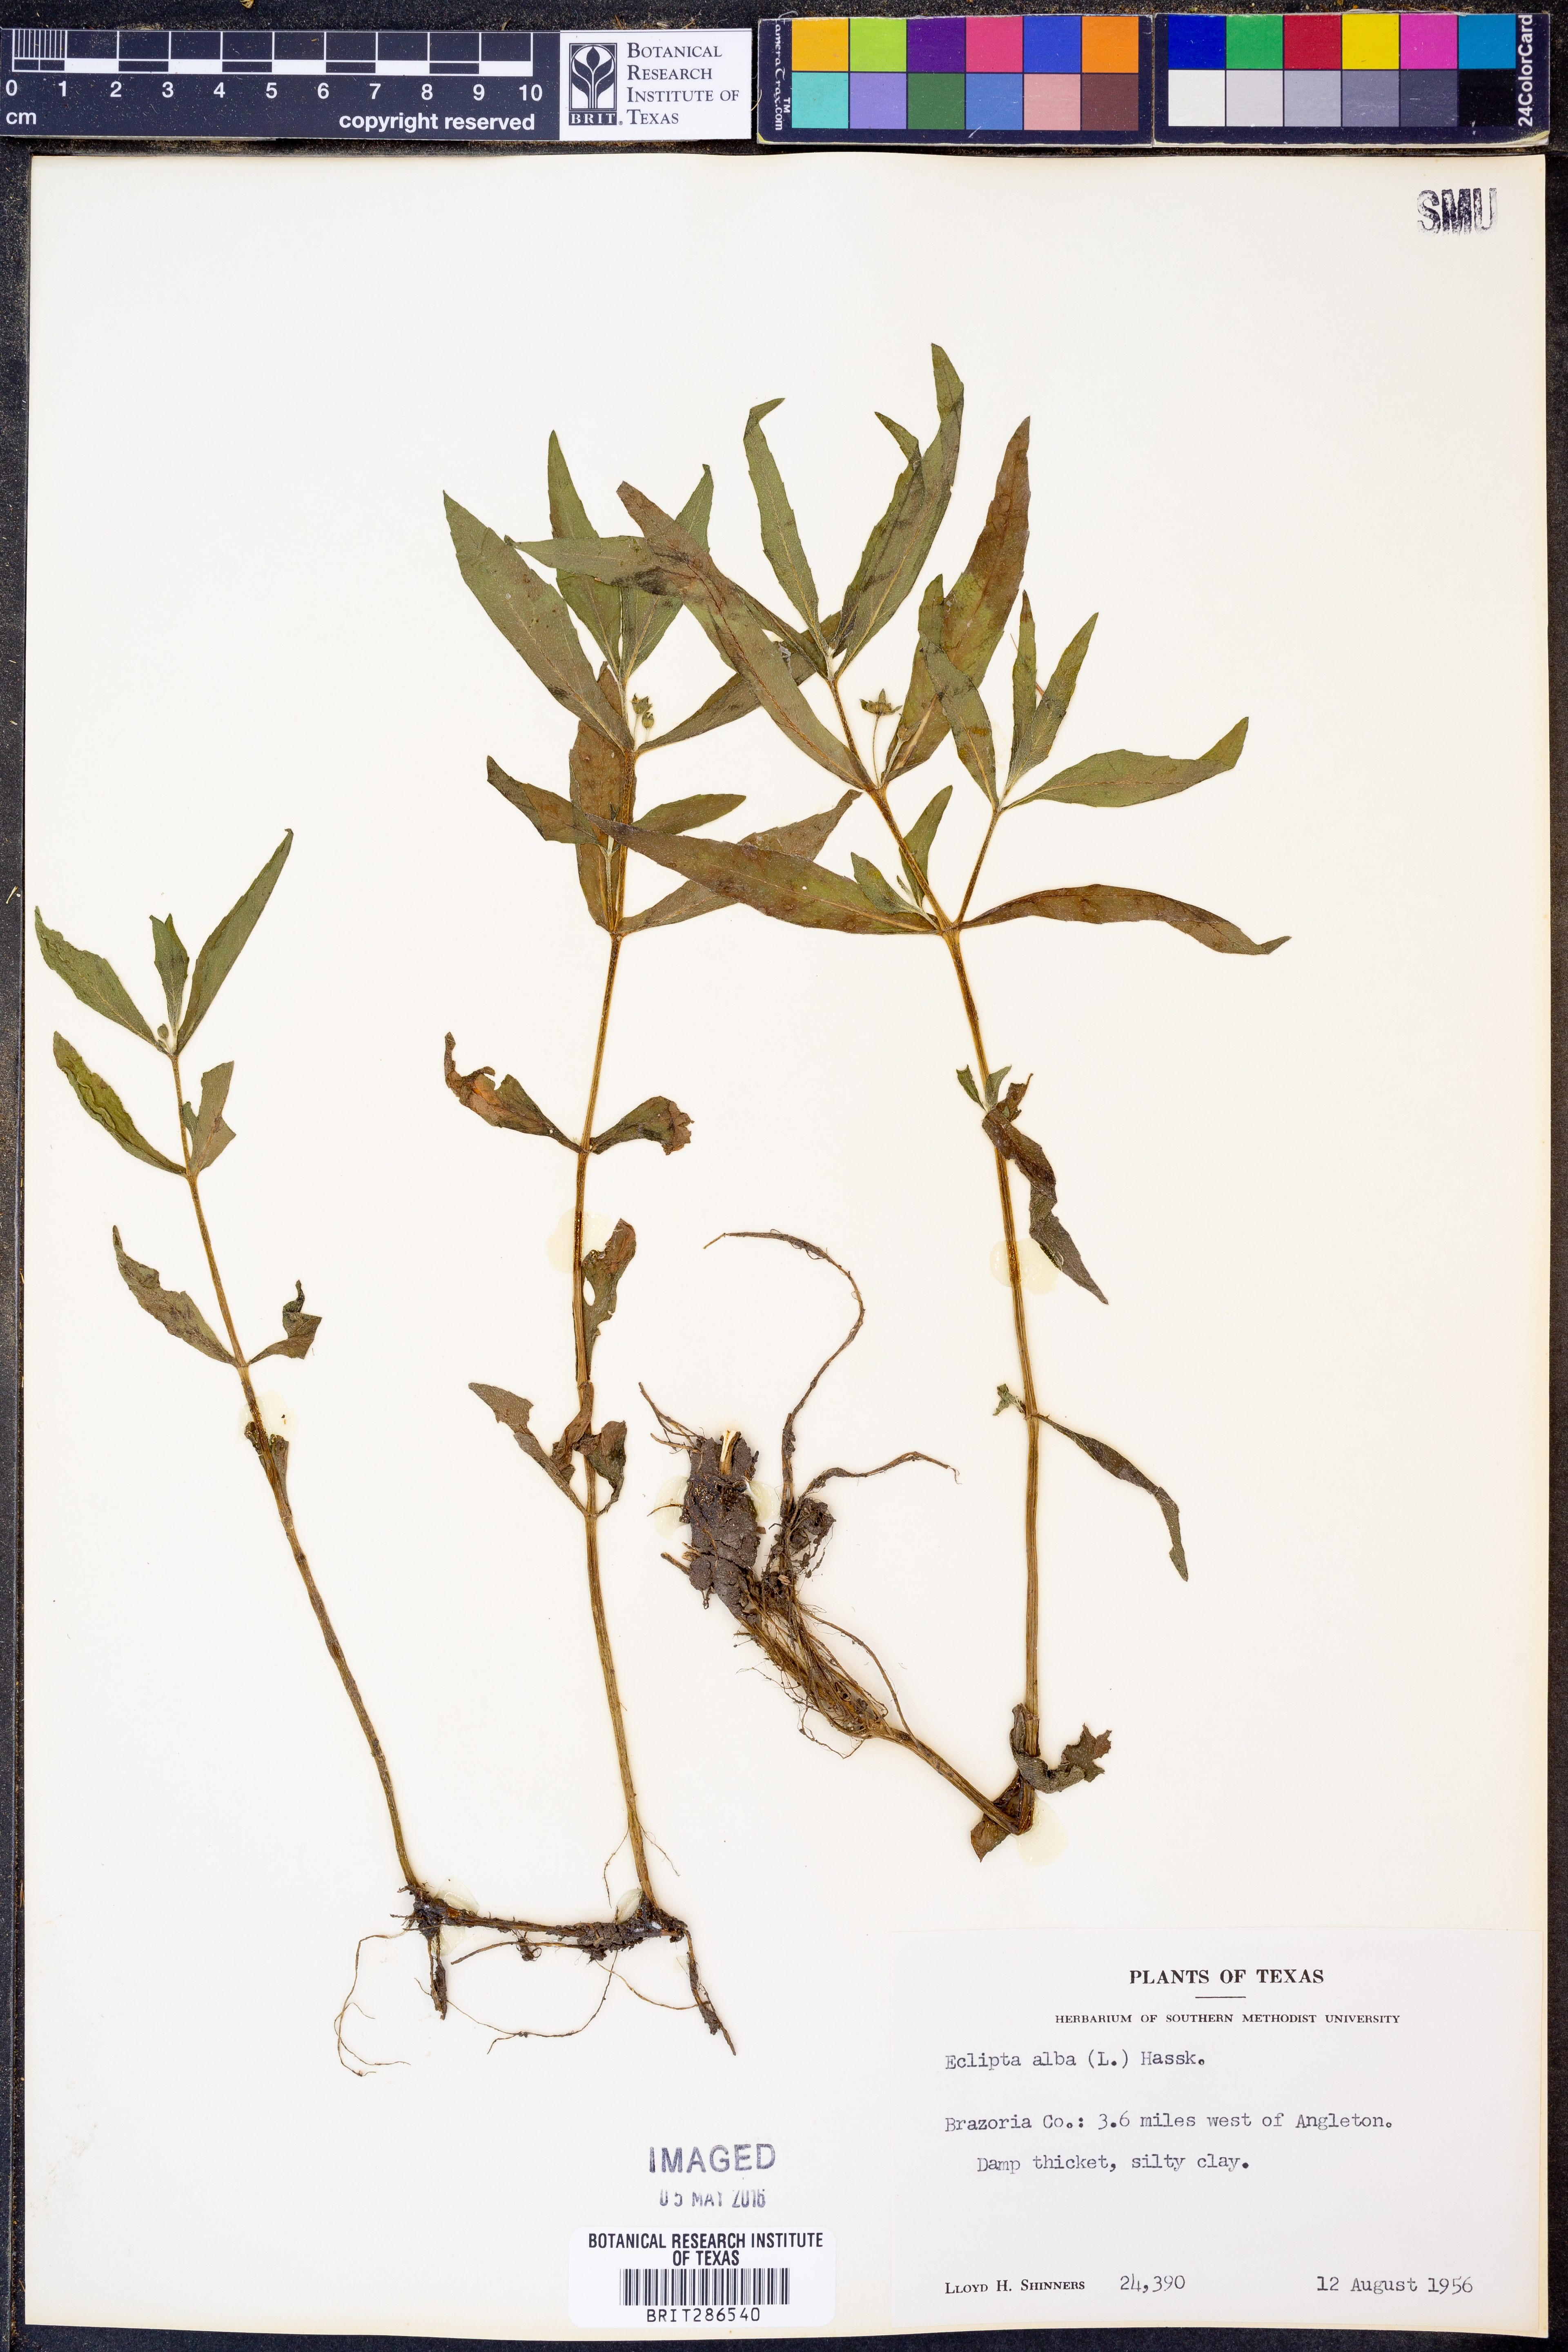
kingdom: Plantae
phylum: Tracheophyta
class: Magnoliopsida
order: Asterales
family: Asteraceae
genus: Eclipta
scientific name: Eclipta alba
